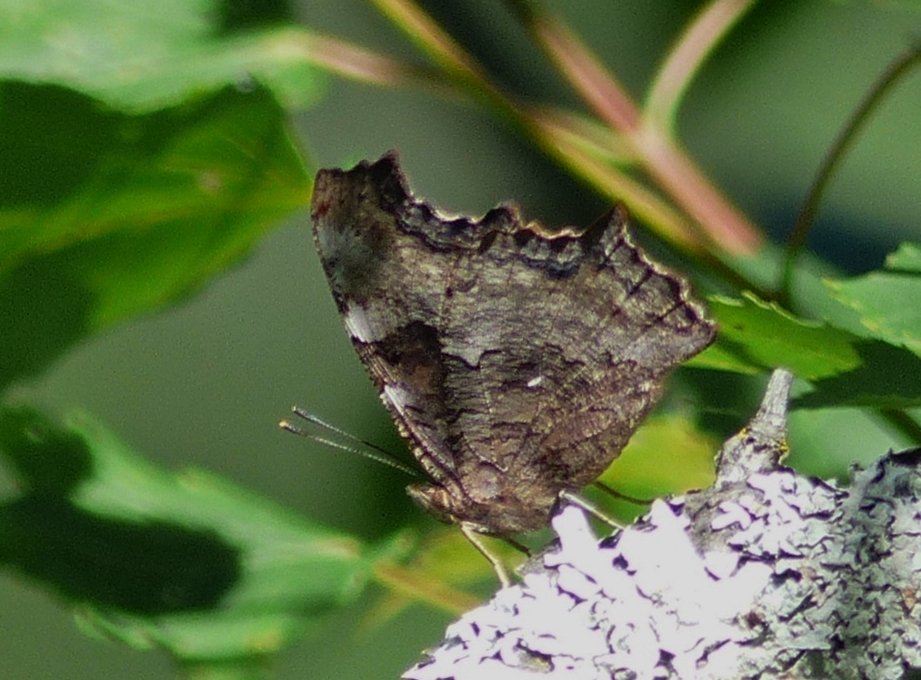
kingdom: Animalia
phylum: Arthropoda
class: Insecta
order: Lepidoptera
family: Nymphalidae
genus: Polygonia
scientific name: Polygonia vaualbum
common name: Compton Tortoiseshell
